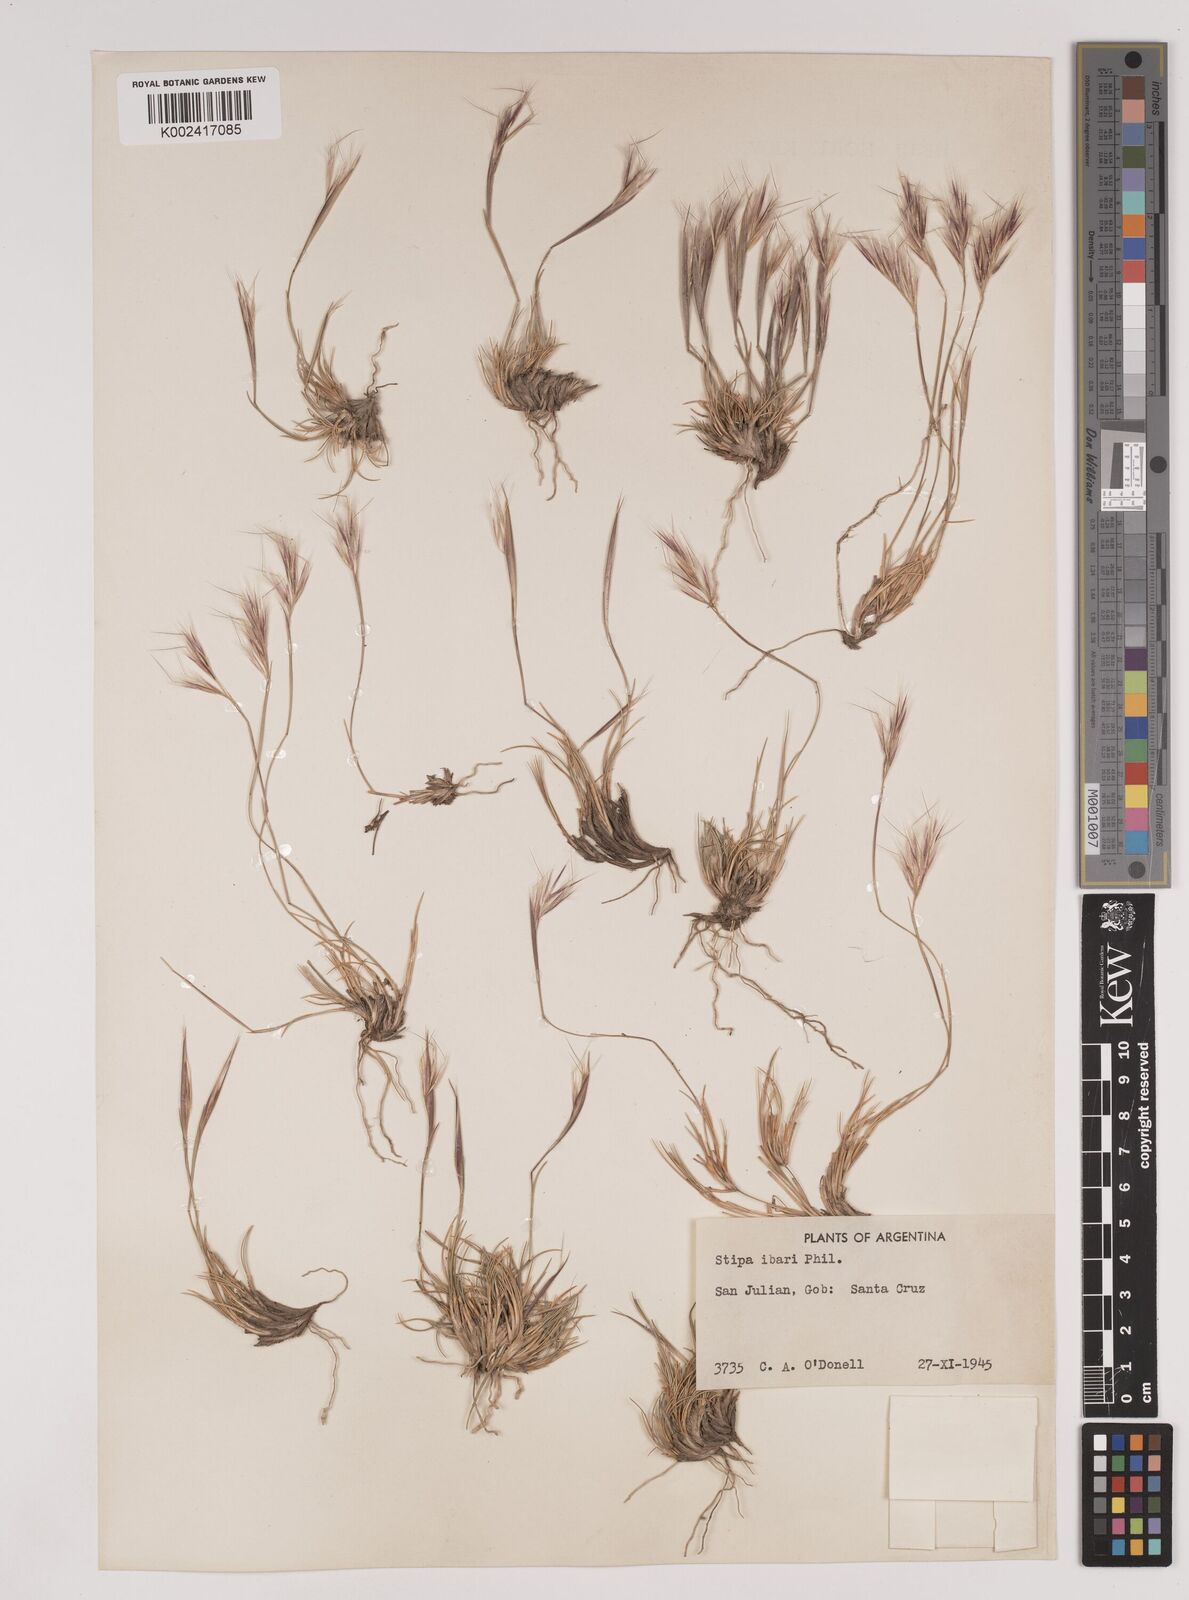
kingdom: Plantae
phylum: Tracheophyta
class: Liliopsida
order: Poales
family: Poaceae
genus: Pappostipa
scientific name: Pappostipa ibarii
